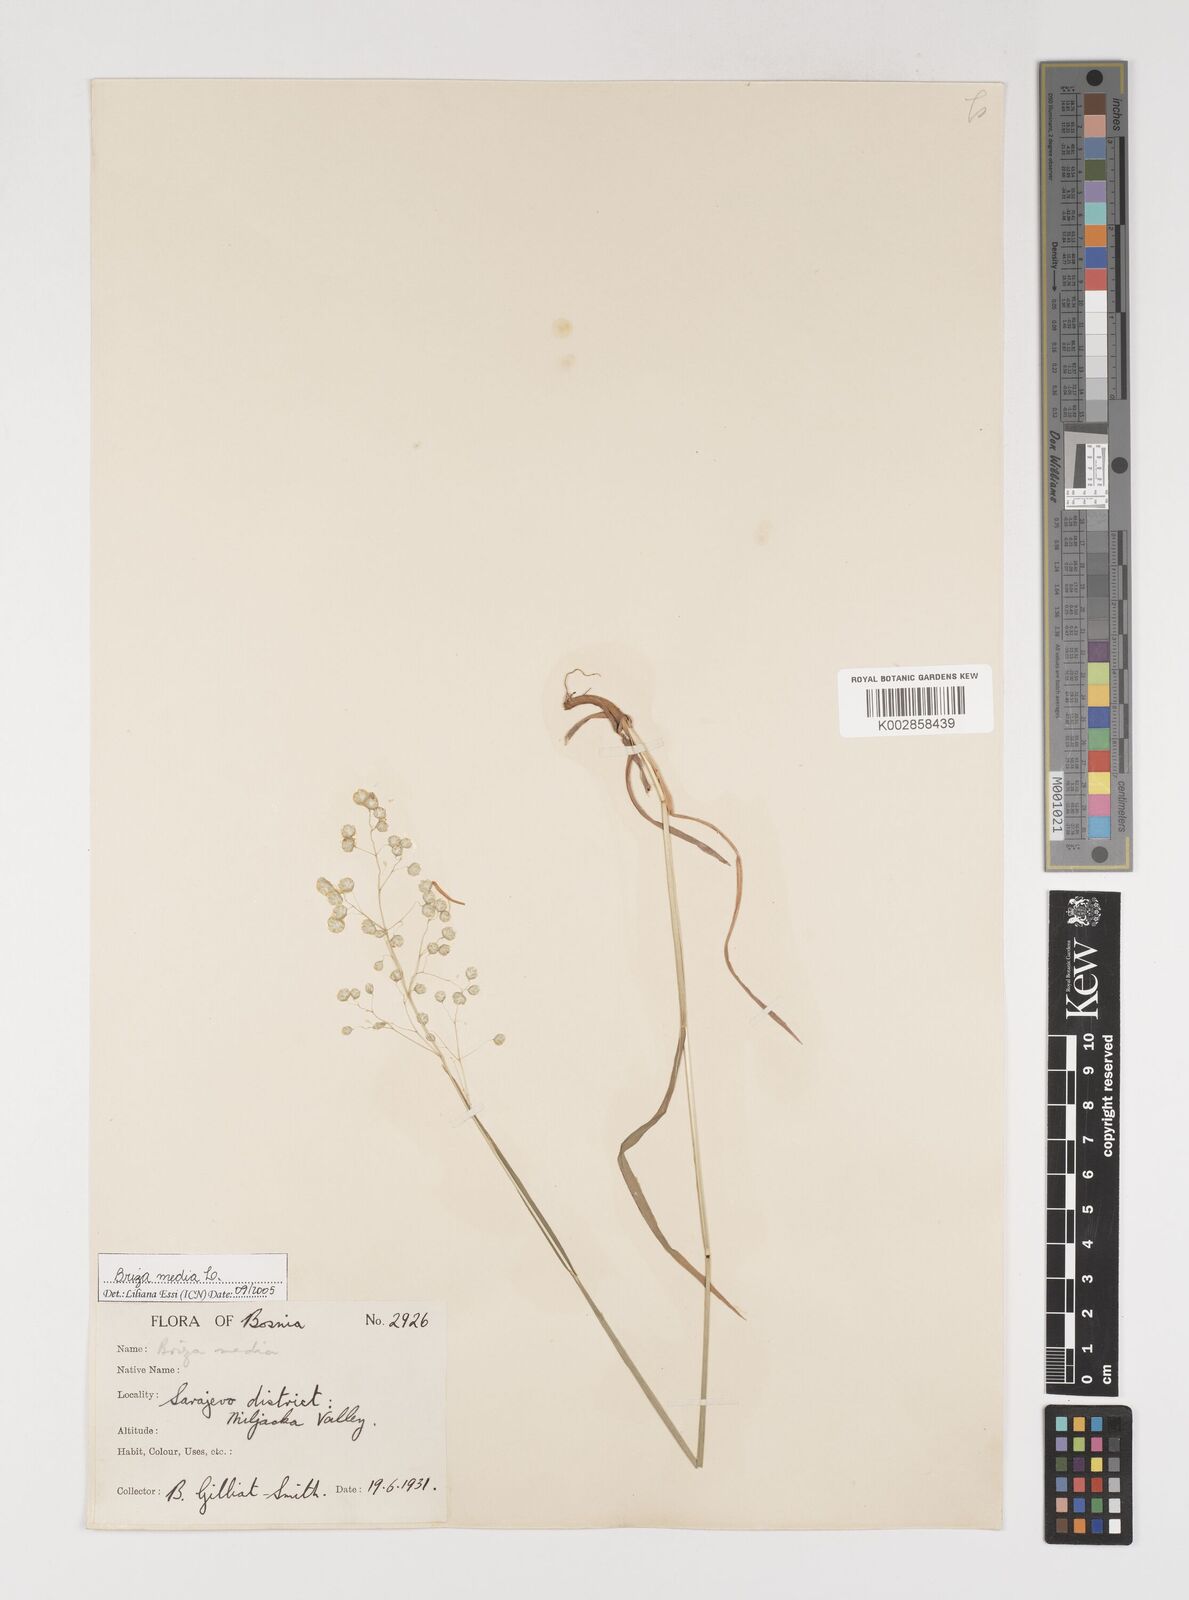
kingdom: Plantae
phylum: Tracheophyta
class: Liliopsida
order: Poales
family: Poaceae
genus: Briza
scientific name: Briza media
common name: Quaking grass
